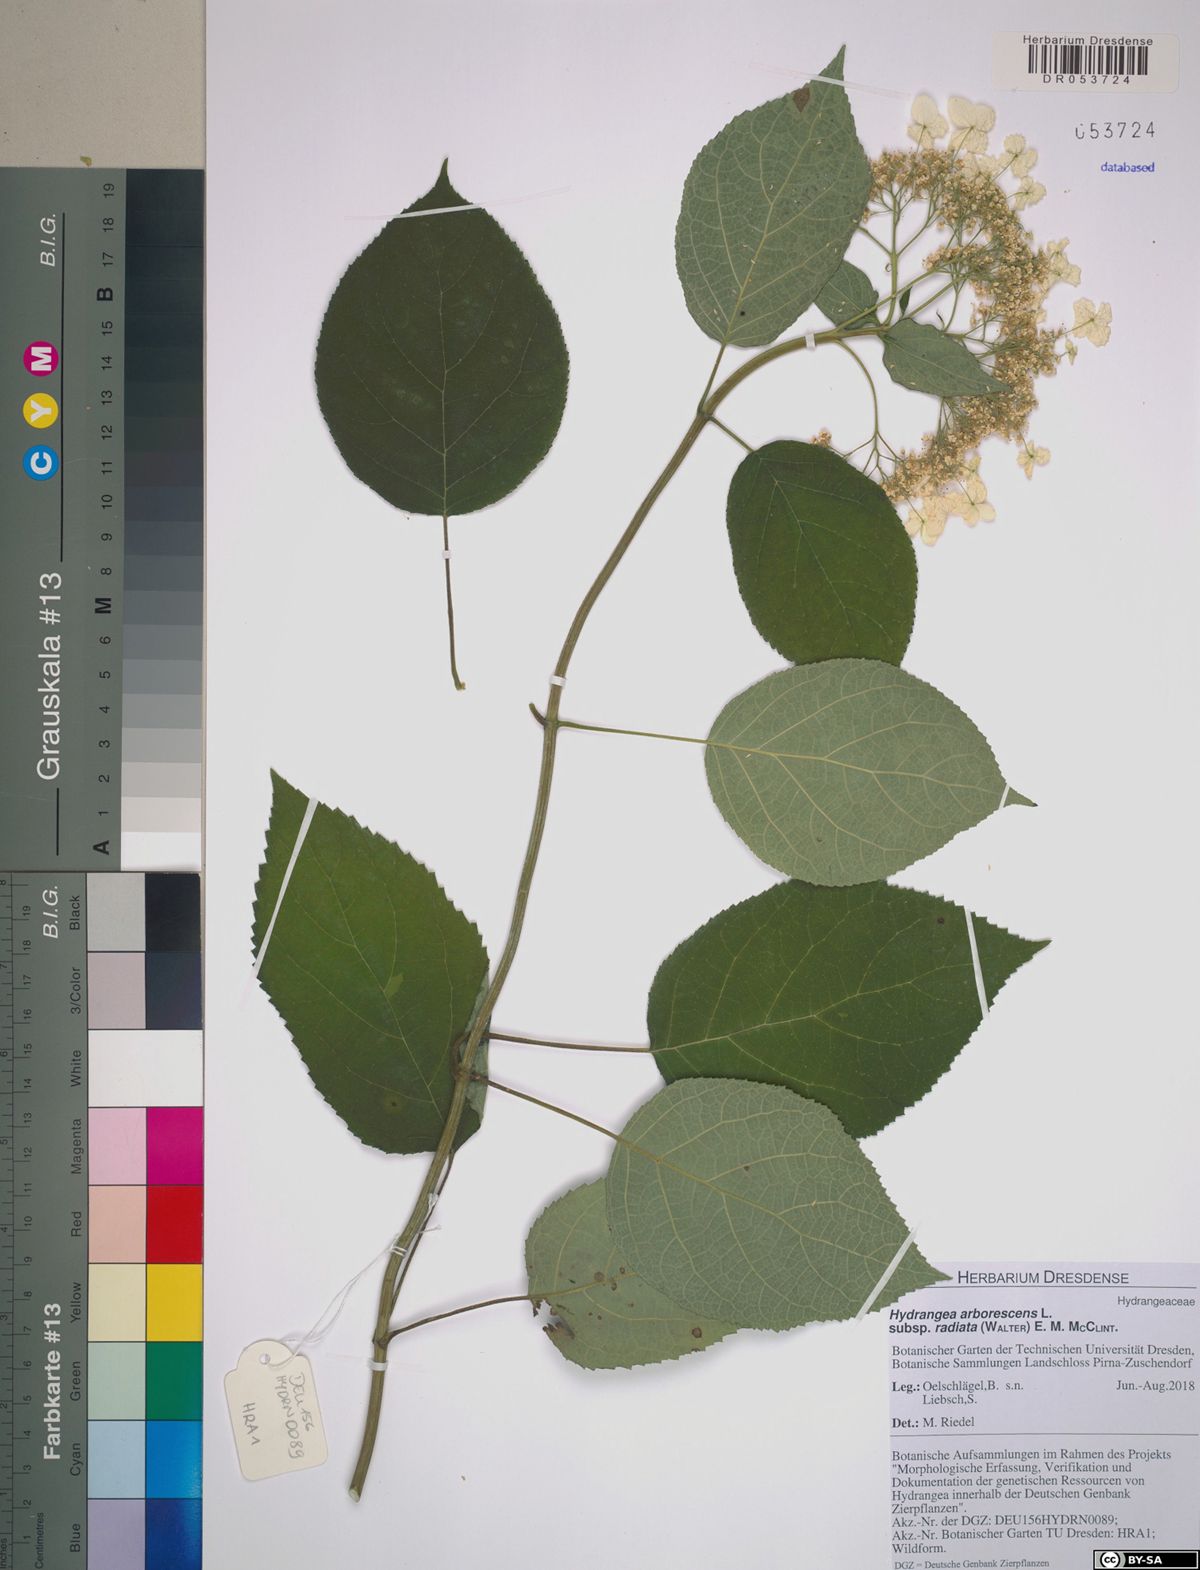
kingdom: Plantae
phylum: Tracheophyta
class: Magnoliopsida
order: Cornales
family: Hydrangeaceae
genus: Hydrangea
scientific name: Hydrangea radiata
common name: Silverleaf hydrangea
